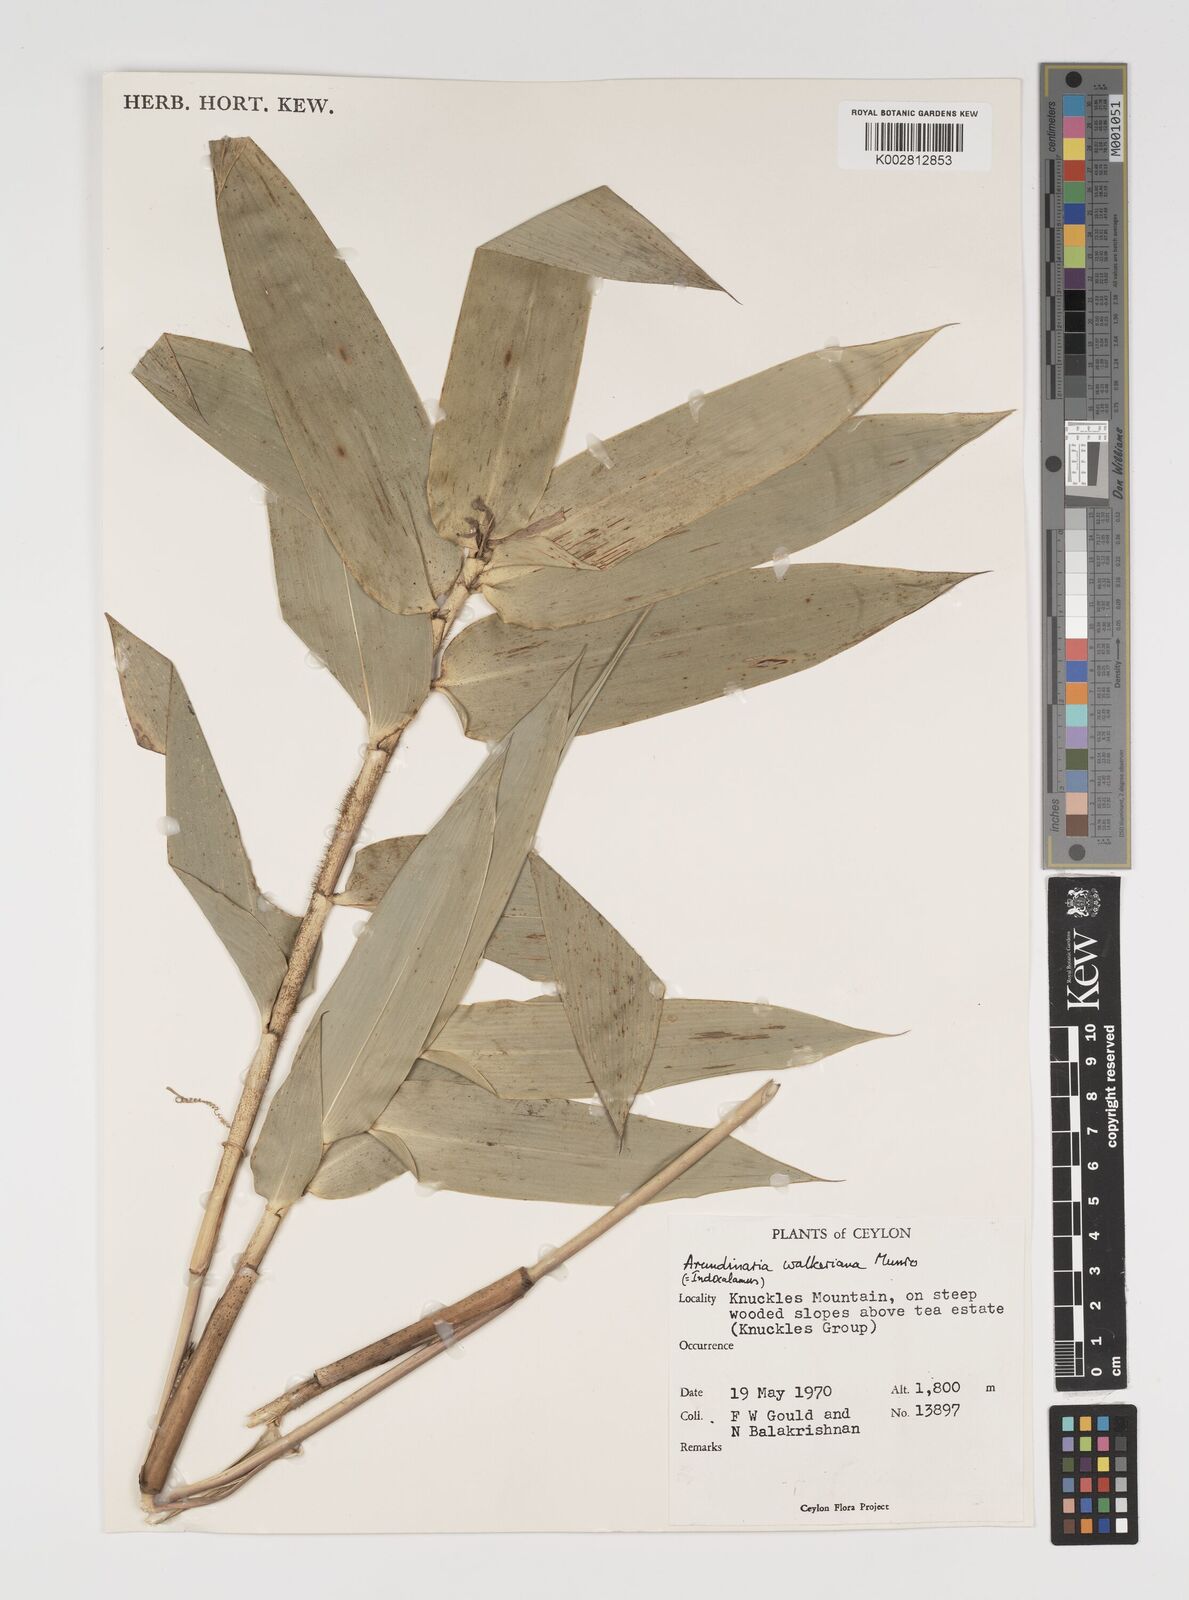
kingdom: Plantae
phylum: Tracheophyta
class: Liliopsida
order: Poales
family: Poaceae
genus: Kuruna
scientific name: Kuruna walkeriana
